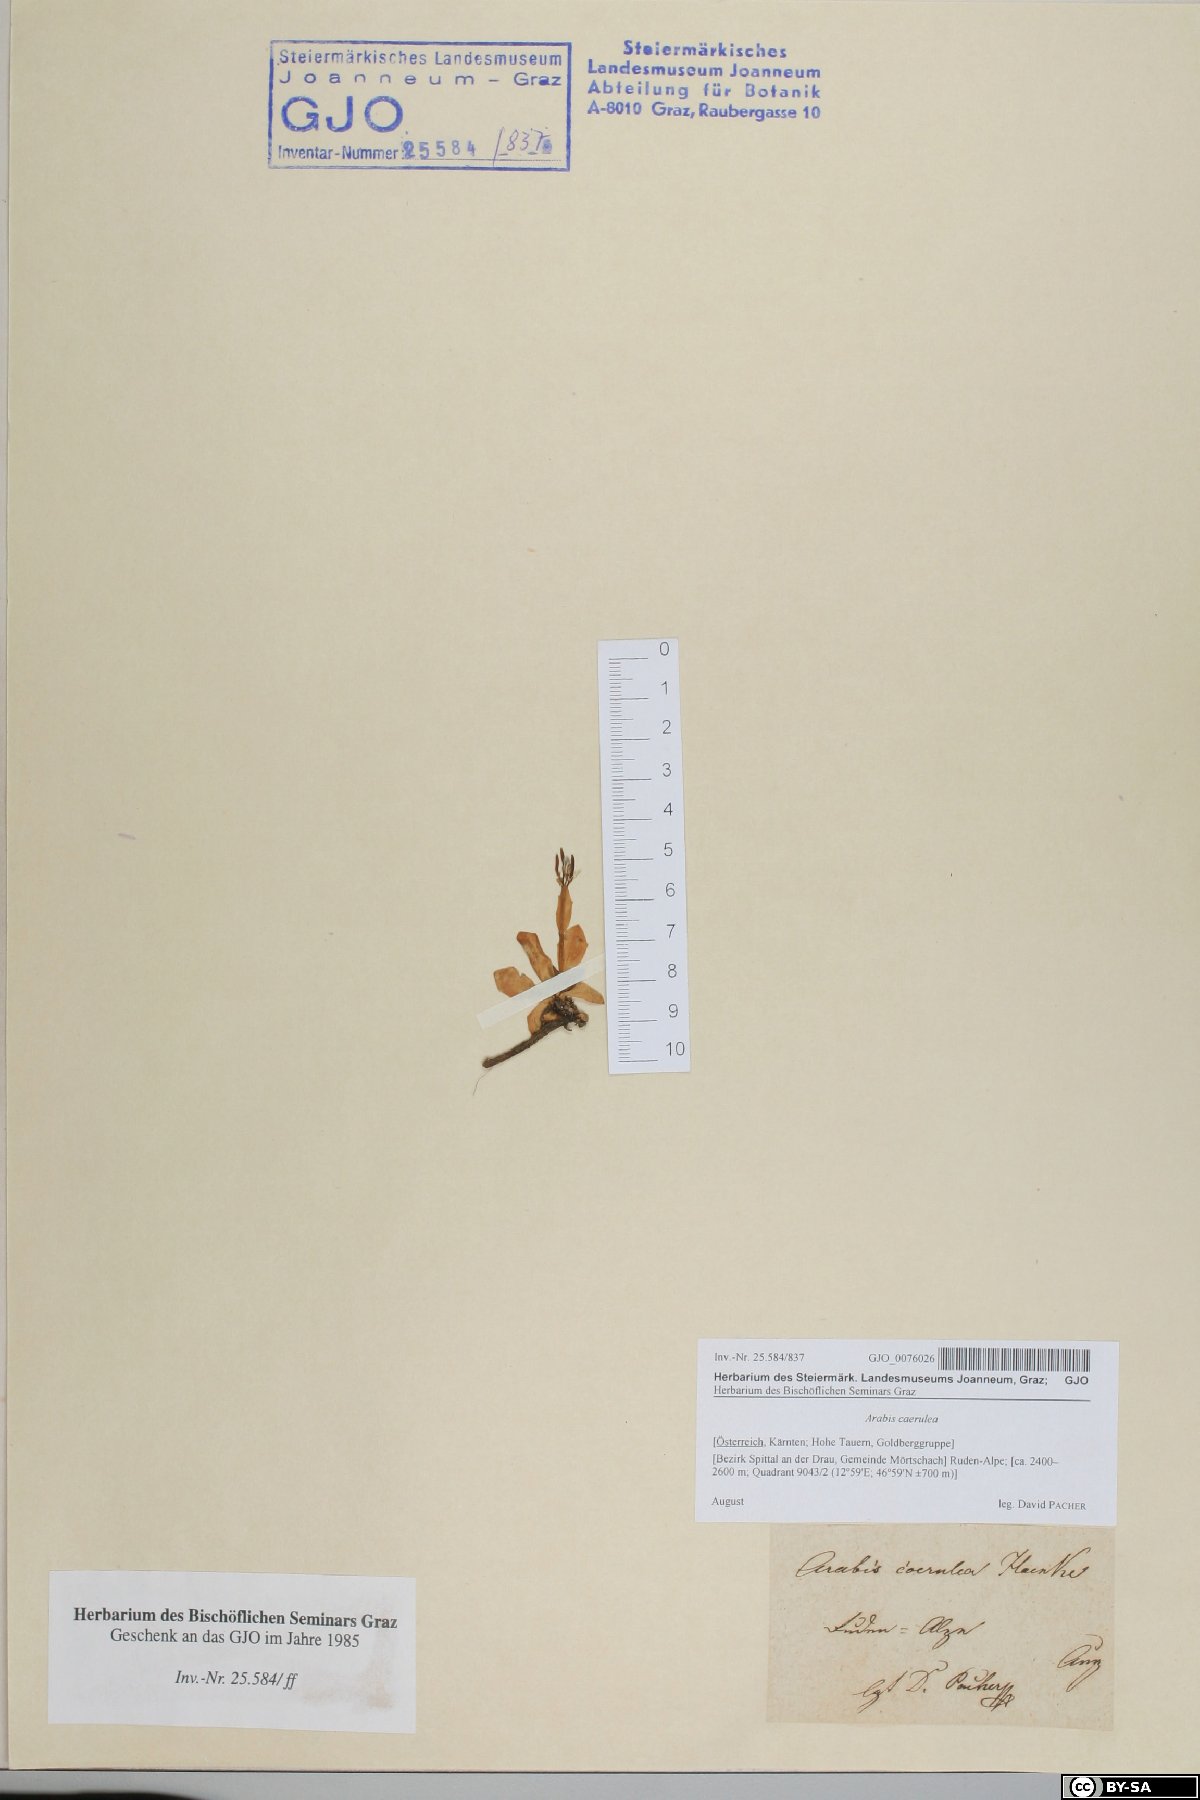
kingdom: Plantae
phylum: Tracheophyta
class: Magnoliopsida
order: Brassicales
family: Brassicaceae
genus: Arabis
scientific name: Arabis caerulea
